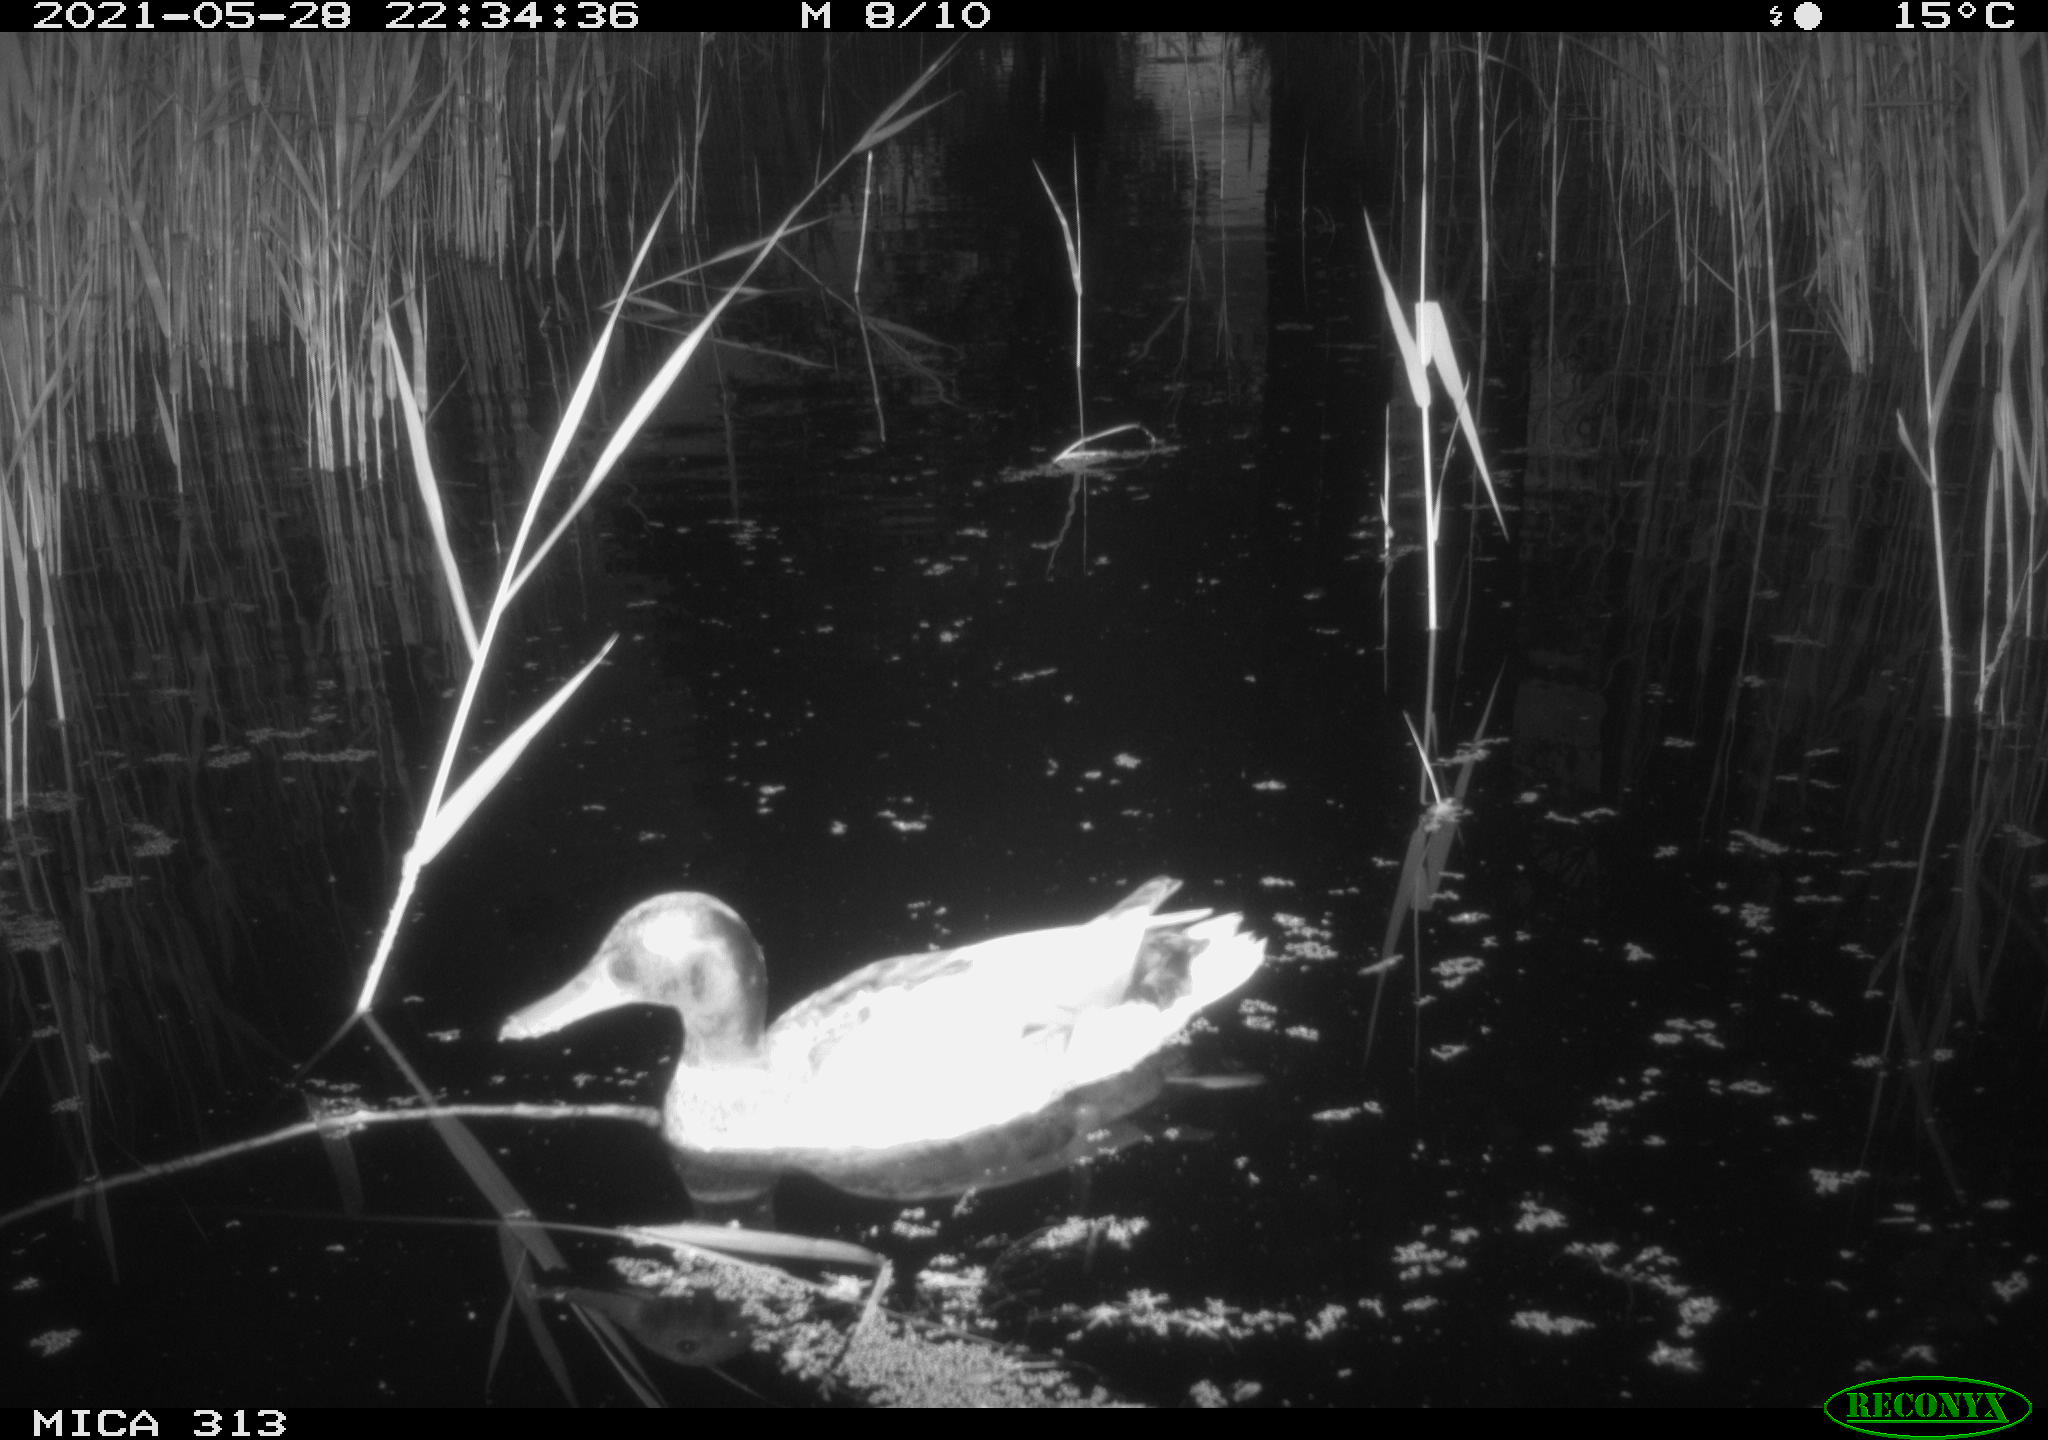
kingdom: Animalia
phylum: Chordata
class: Aves
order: Anseriformes
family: Anatidae
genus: Anas
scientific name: Anas platyrhynchos
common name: Mallard
